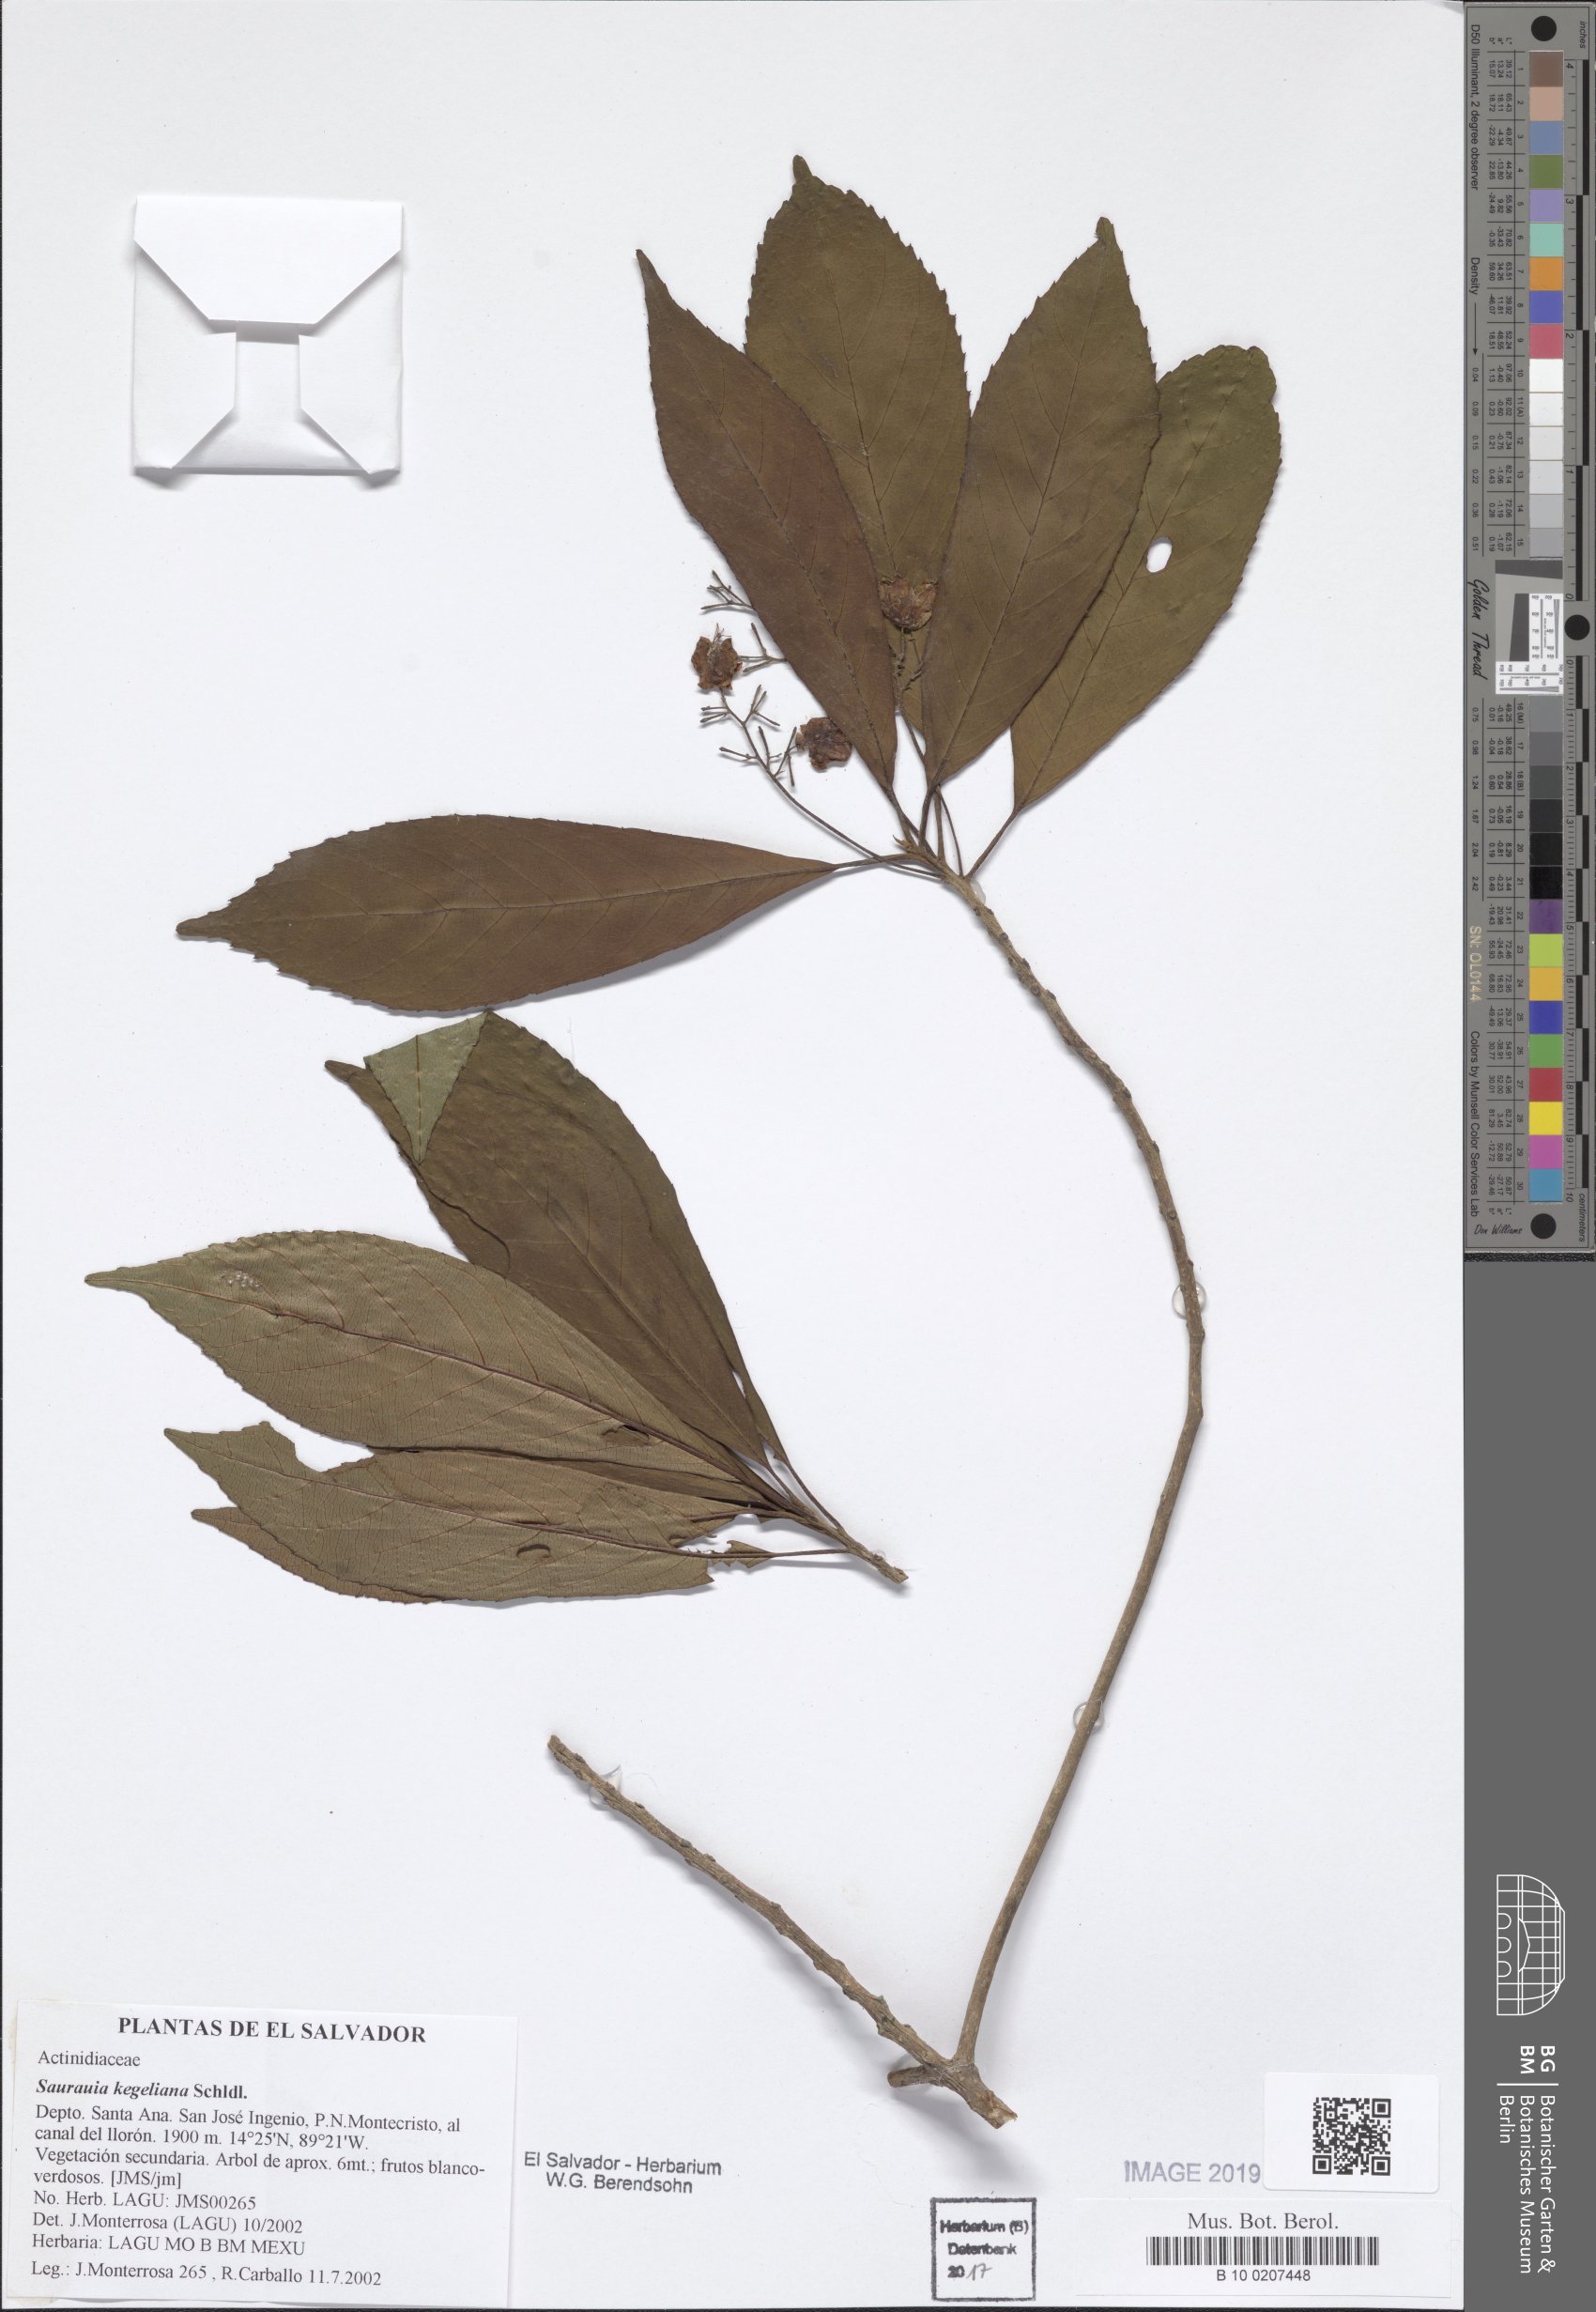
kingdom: Plantae
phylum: Tracheophyta
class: Magnoliopsida
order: Ericales
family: Actinidiaceae
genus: Saurauia
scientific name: Saurauia kegeliana
